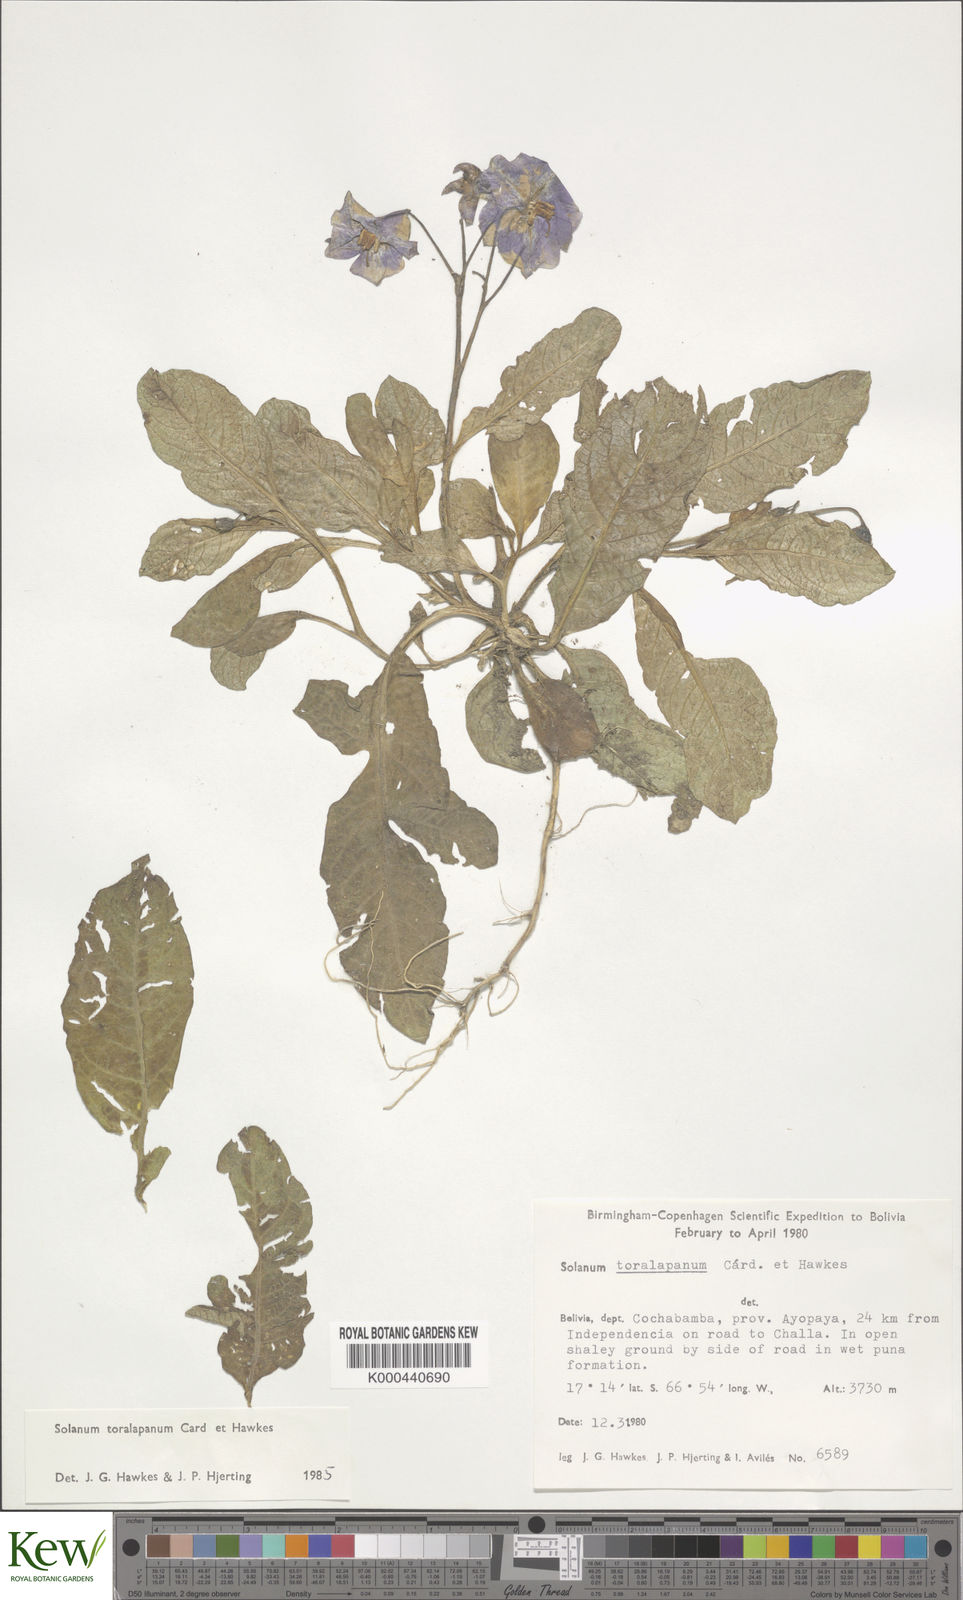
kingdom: Plantae
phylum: Tracheophyta
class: Magnoliopsida
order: Solanales
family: Solanaceae
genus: Solanum
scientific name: Solanum boliviense
